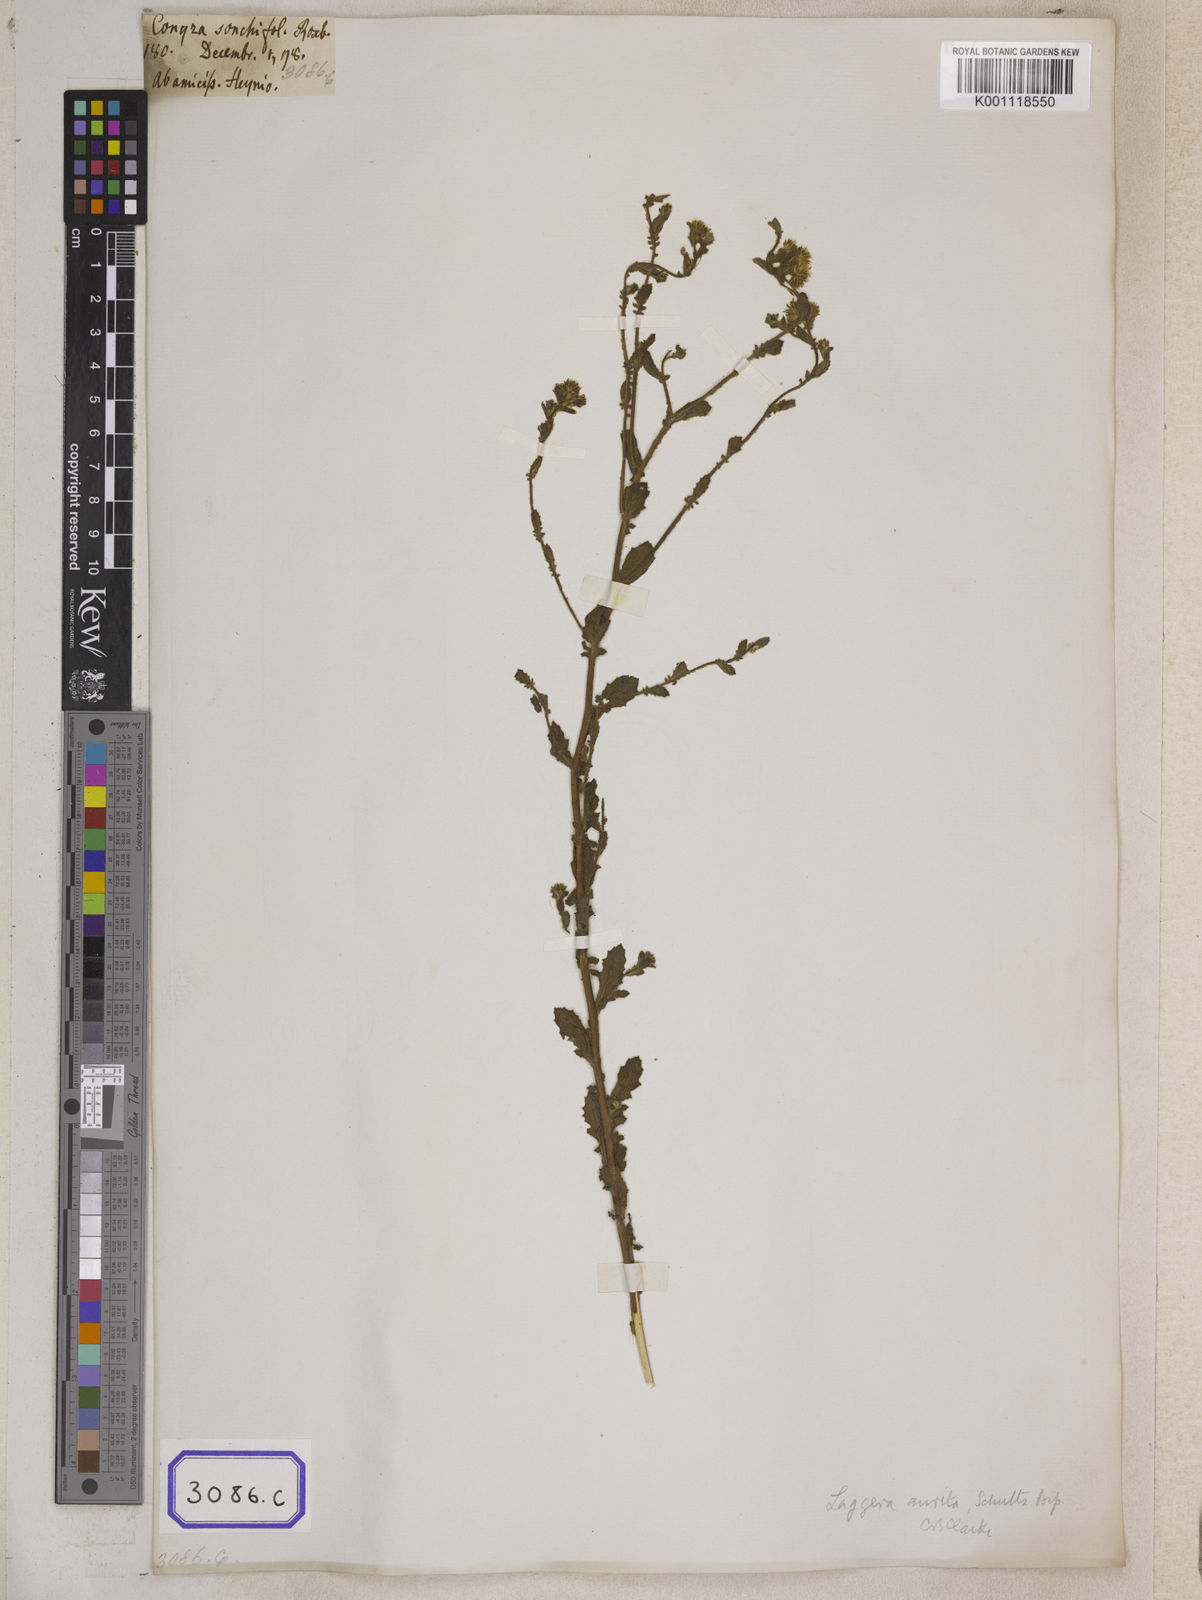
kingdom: Plantae
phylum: Tracheophyta
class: Magnoliopsida
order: Asterales
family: Asteraceae
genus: Pseudoconyza
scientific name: Pseudoconyza viscosa
